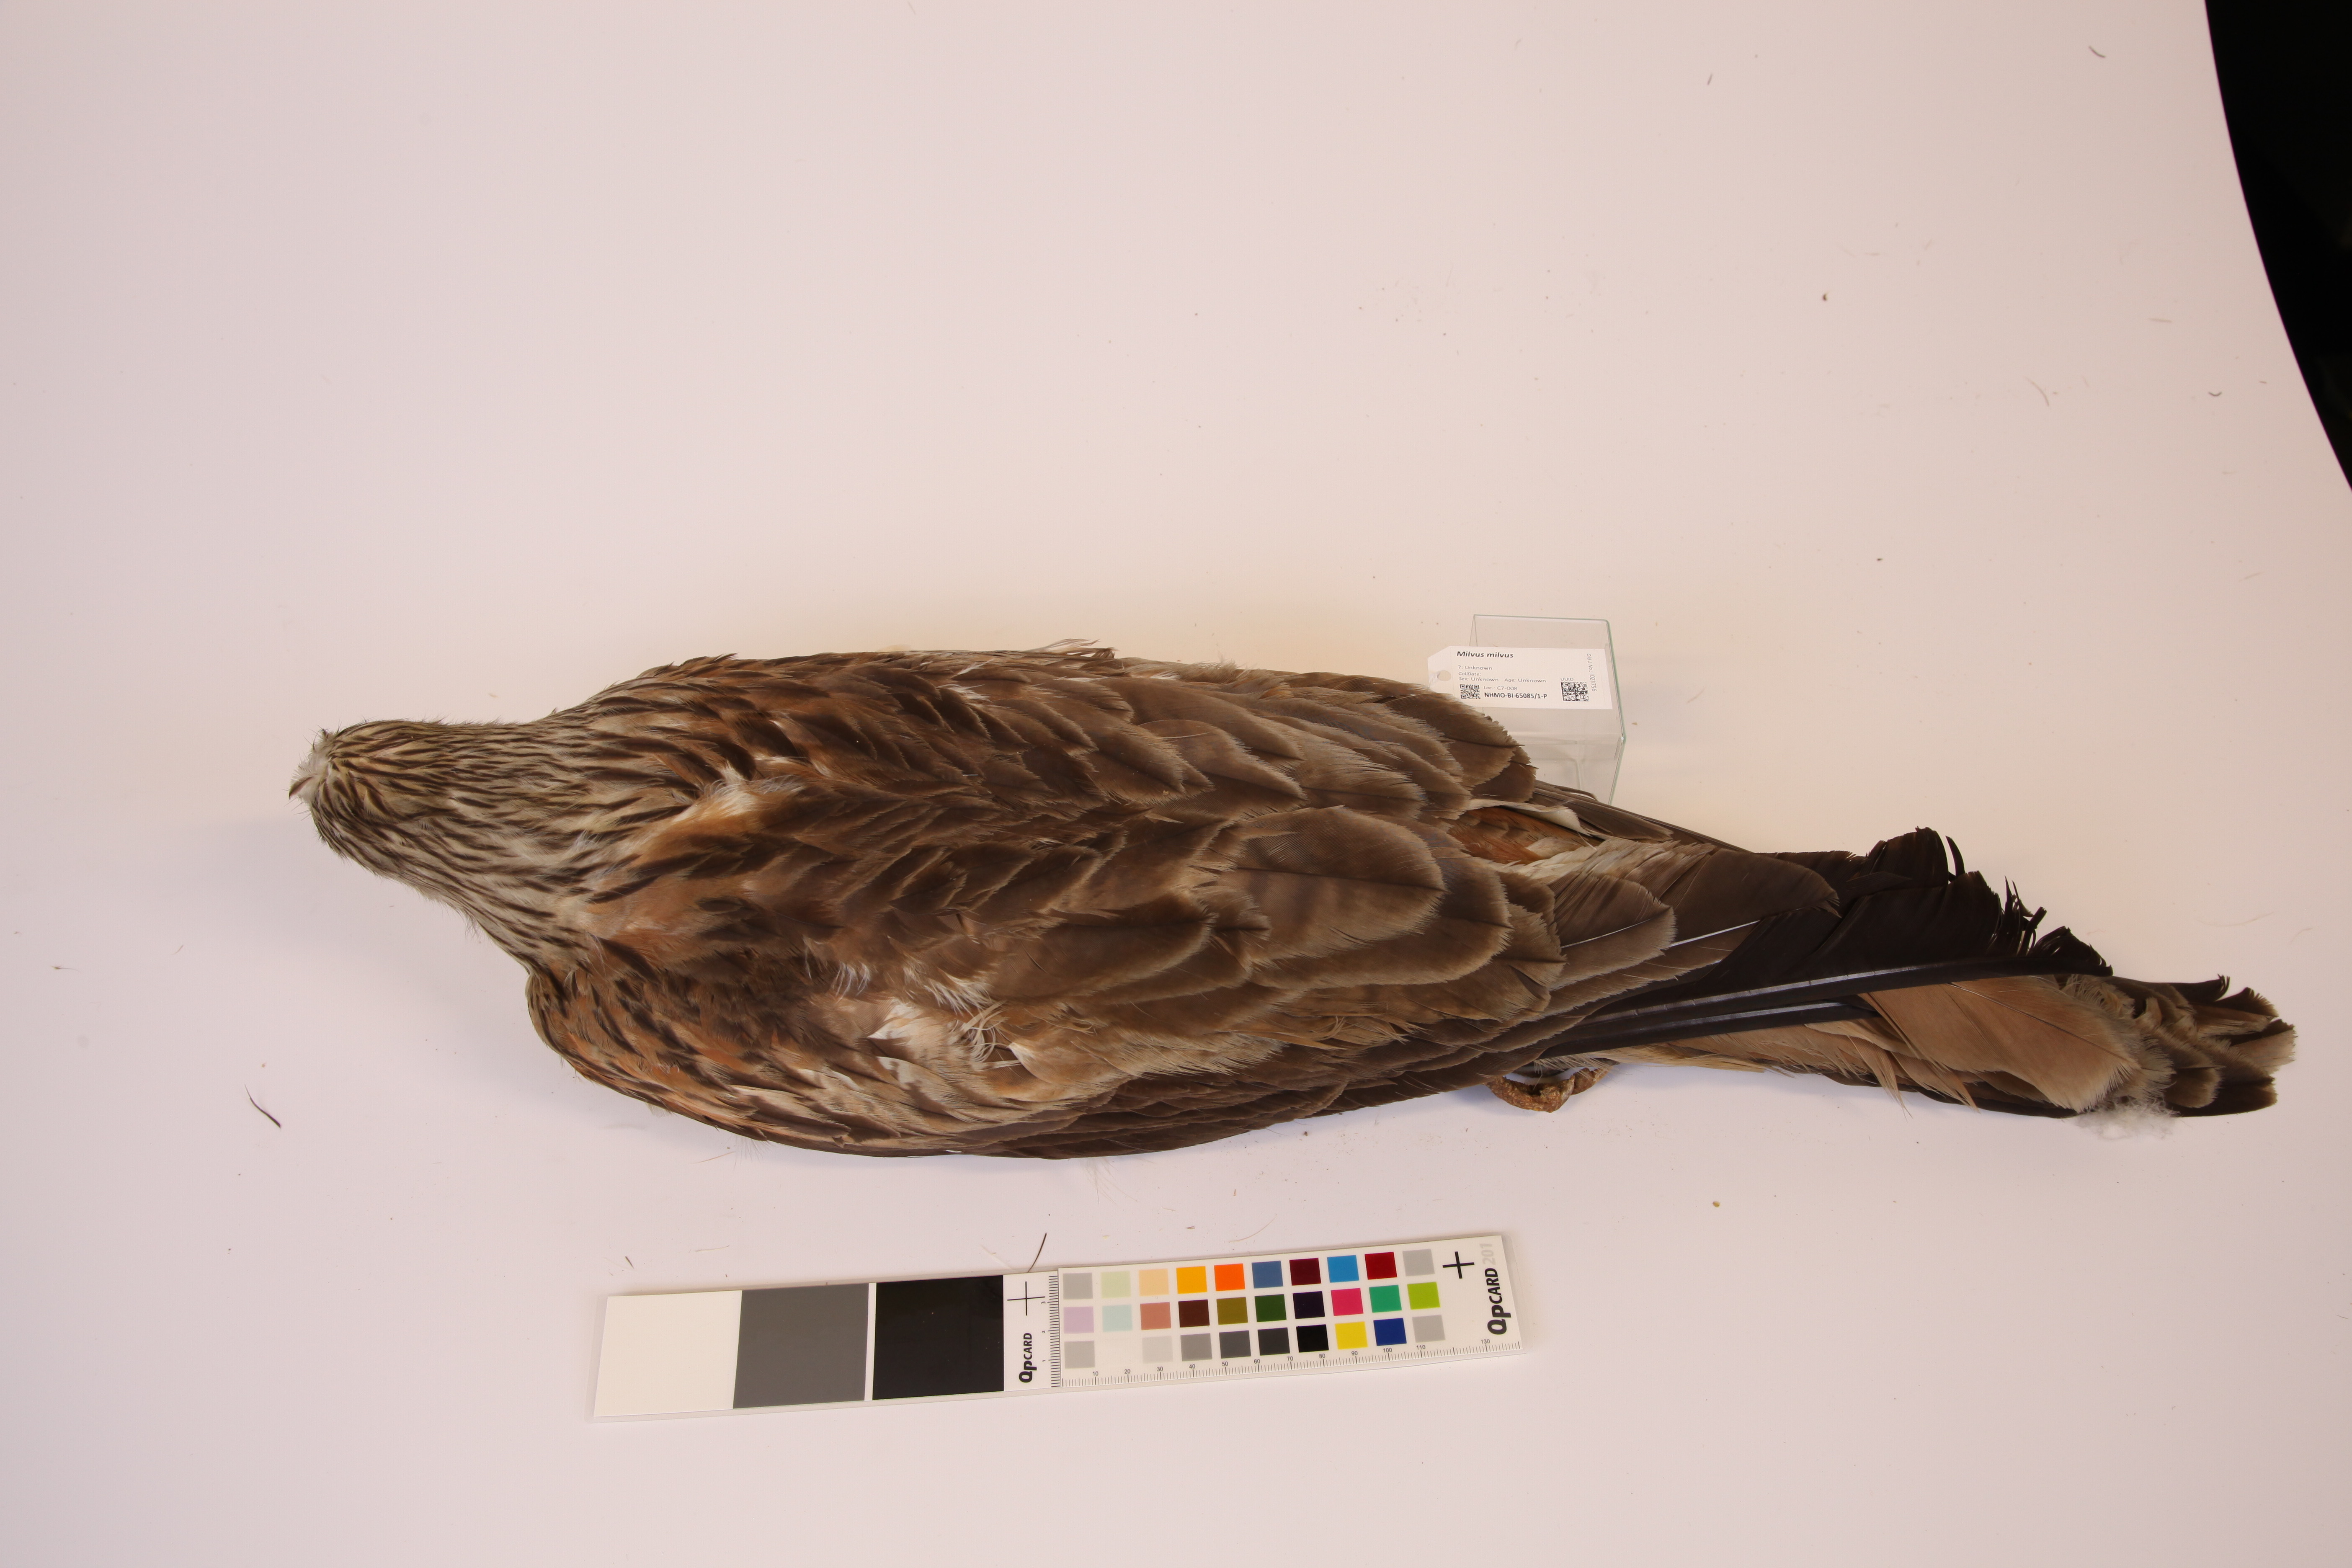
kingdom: Animalia
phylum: Chordata
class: Aves
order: Accipitriformes
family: Accipitridae
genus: Milvus
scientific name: Milvus milvus
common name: Red kite
